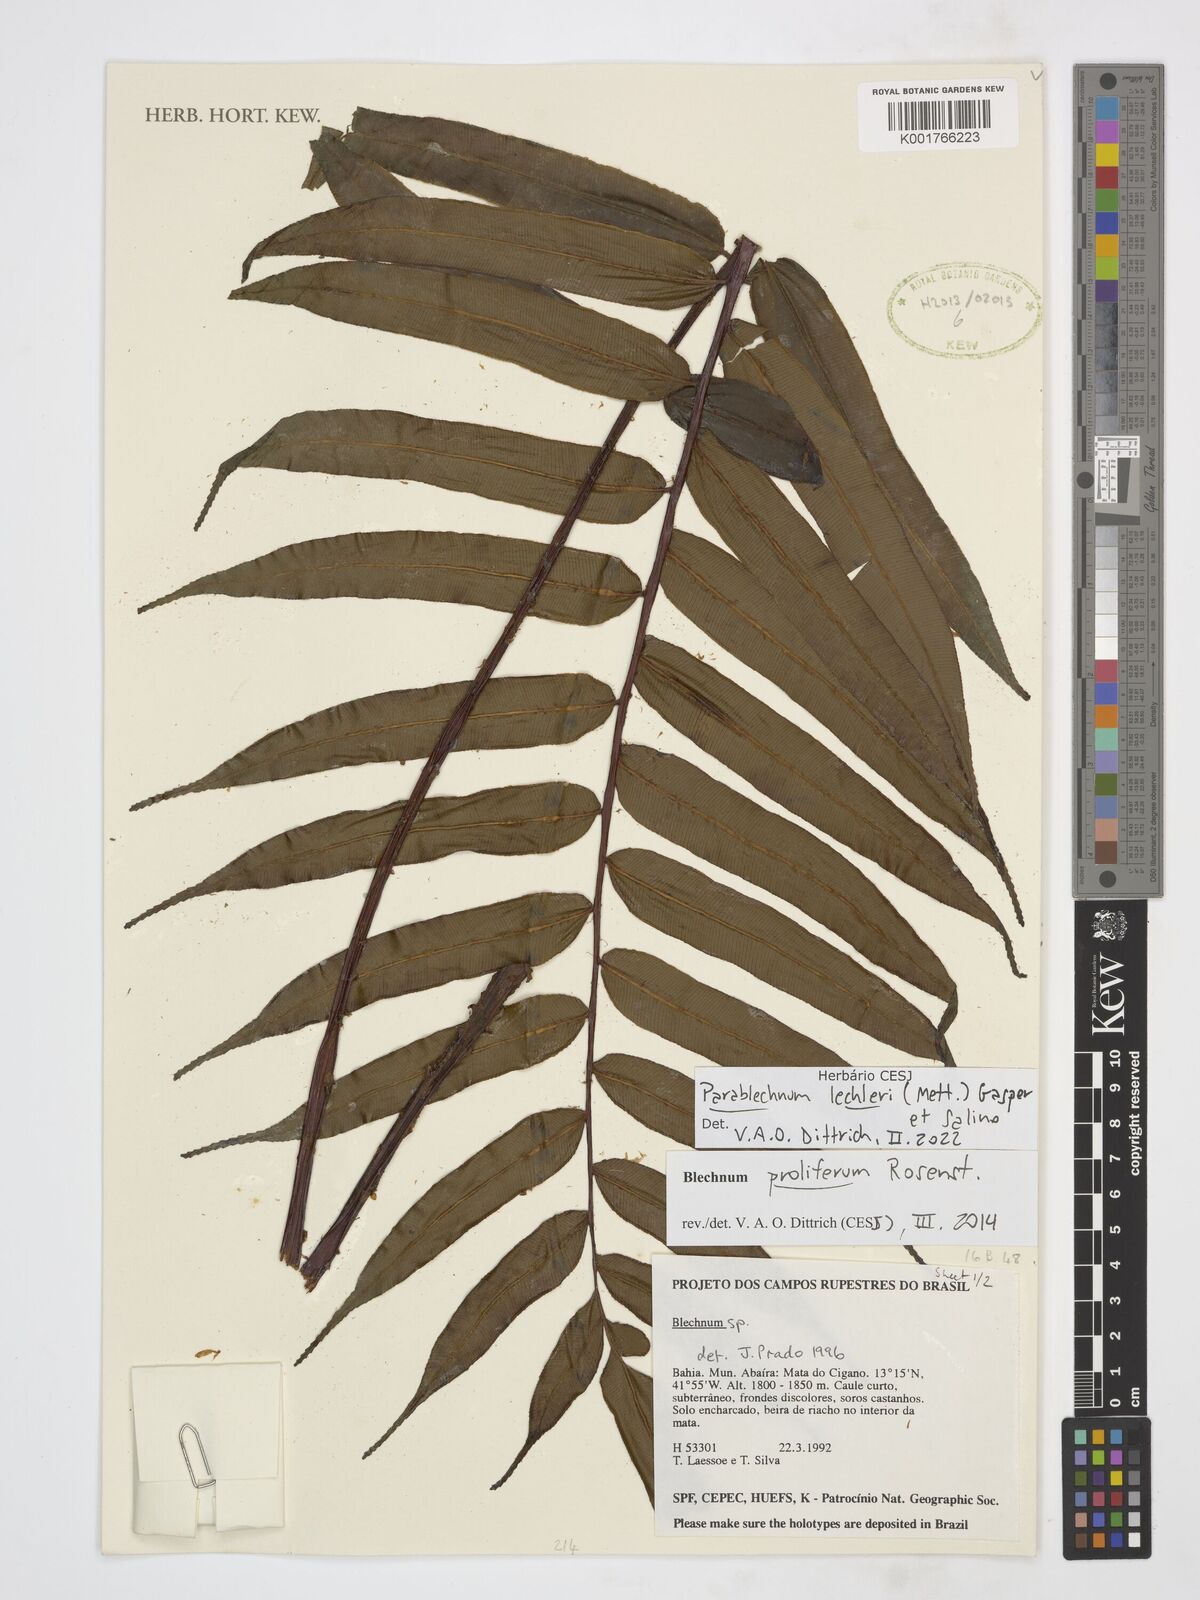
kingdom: Plantae
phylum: Tracheophyta
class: Polypodiopsida
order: Polypodiales
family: Blechnaceae
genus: Parablechnum
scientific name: Parablechnum lechleri
